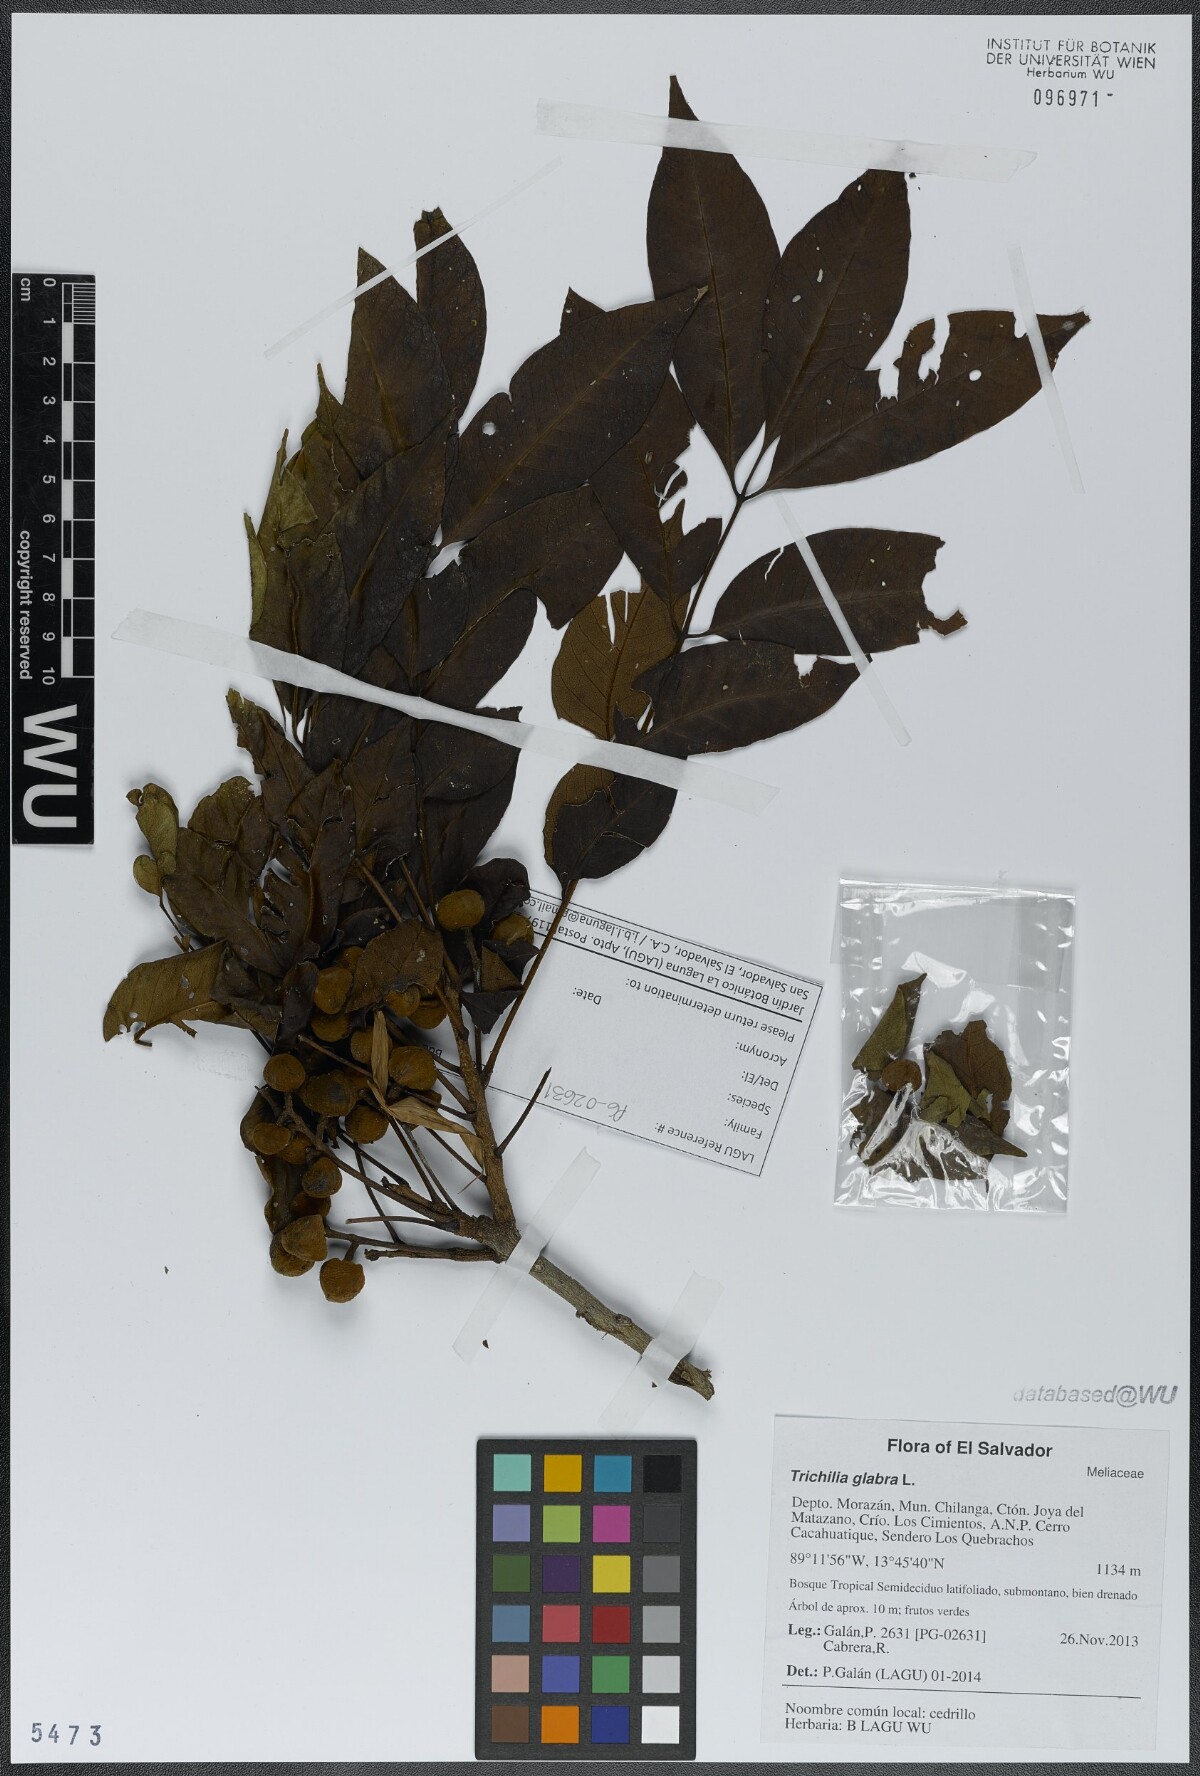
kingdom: Plantae
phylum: Tracheophyta
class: Magnoliopsida
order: Sapindales
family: Meliaceae
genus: Trichilia
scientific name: Trichilia glabra
